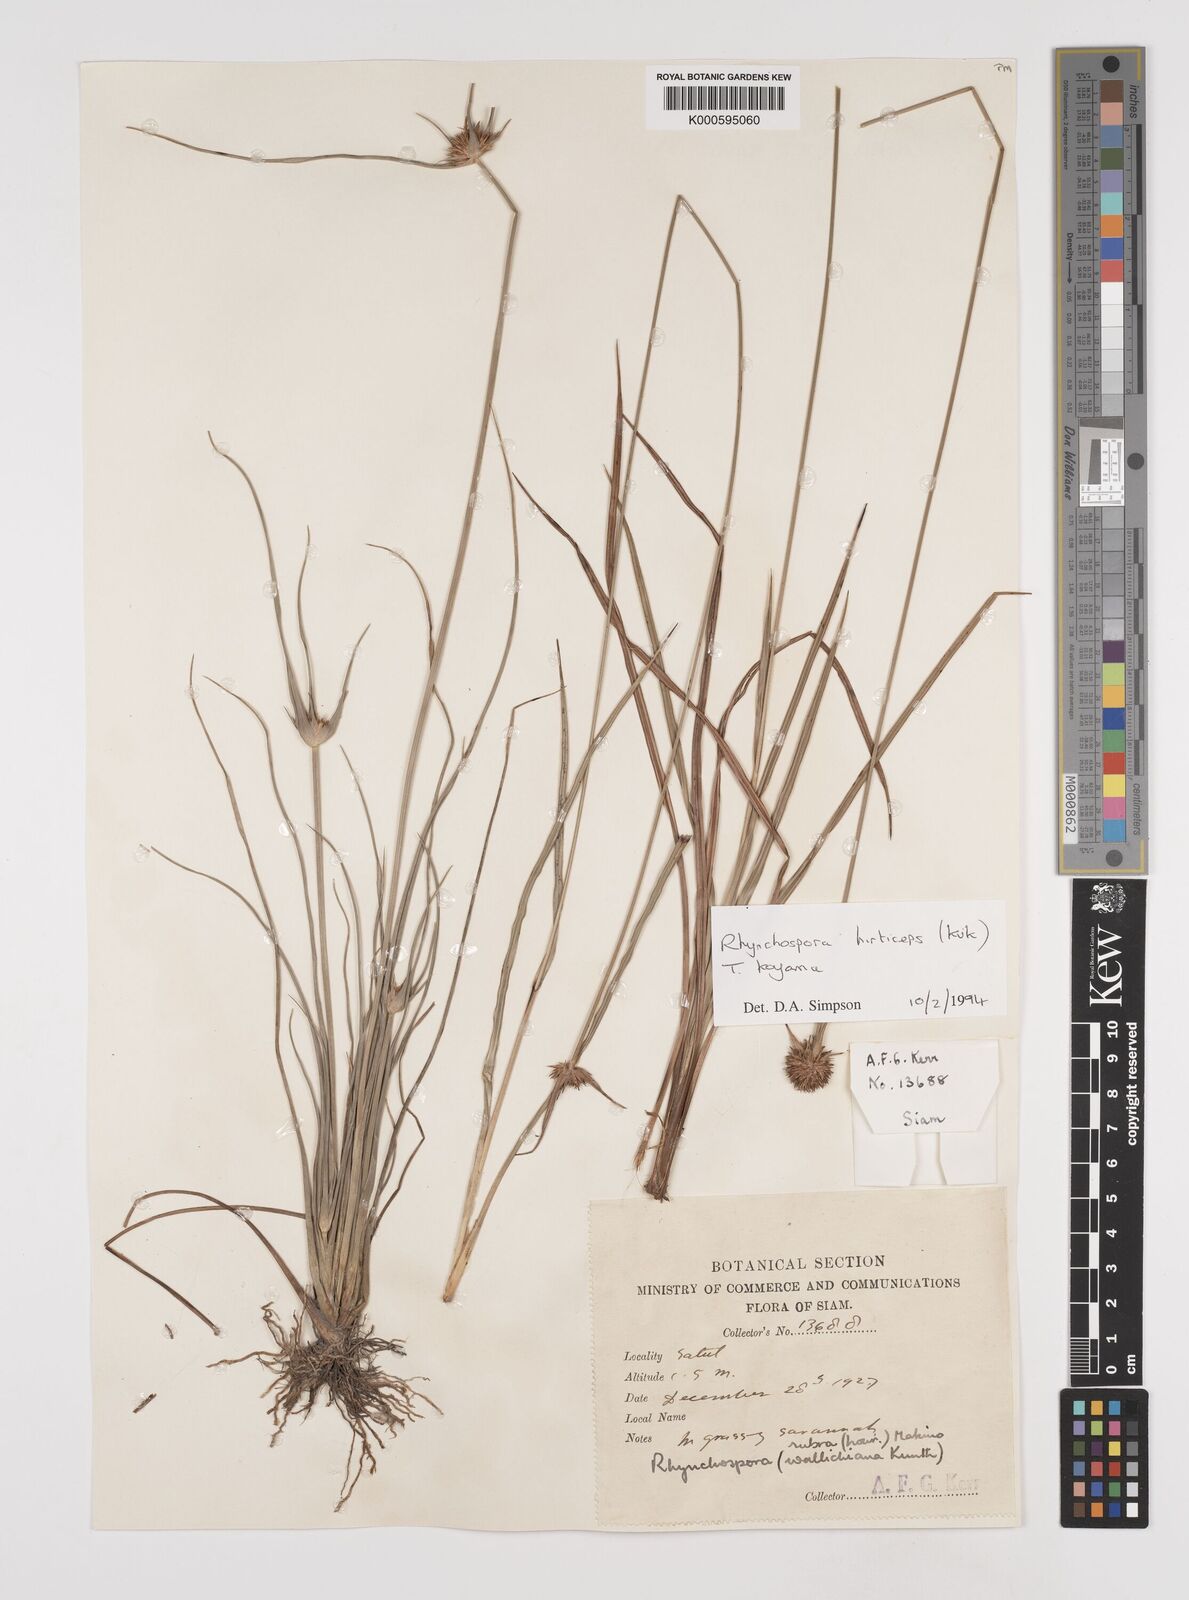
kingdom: Plantae
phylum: Tracheophyta
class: Liliopsida
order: Poales
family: Cyperaceae
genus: Rhynchospora
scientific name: Rhynchospora
